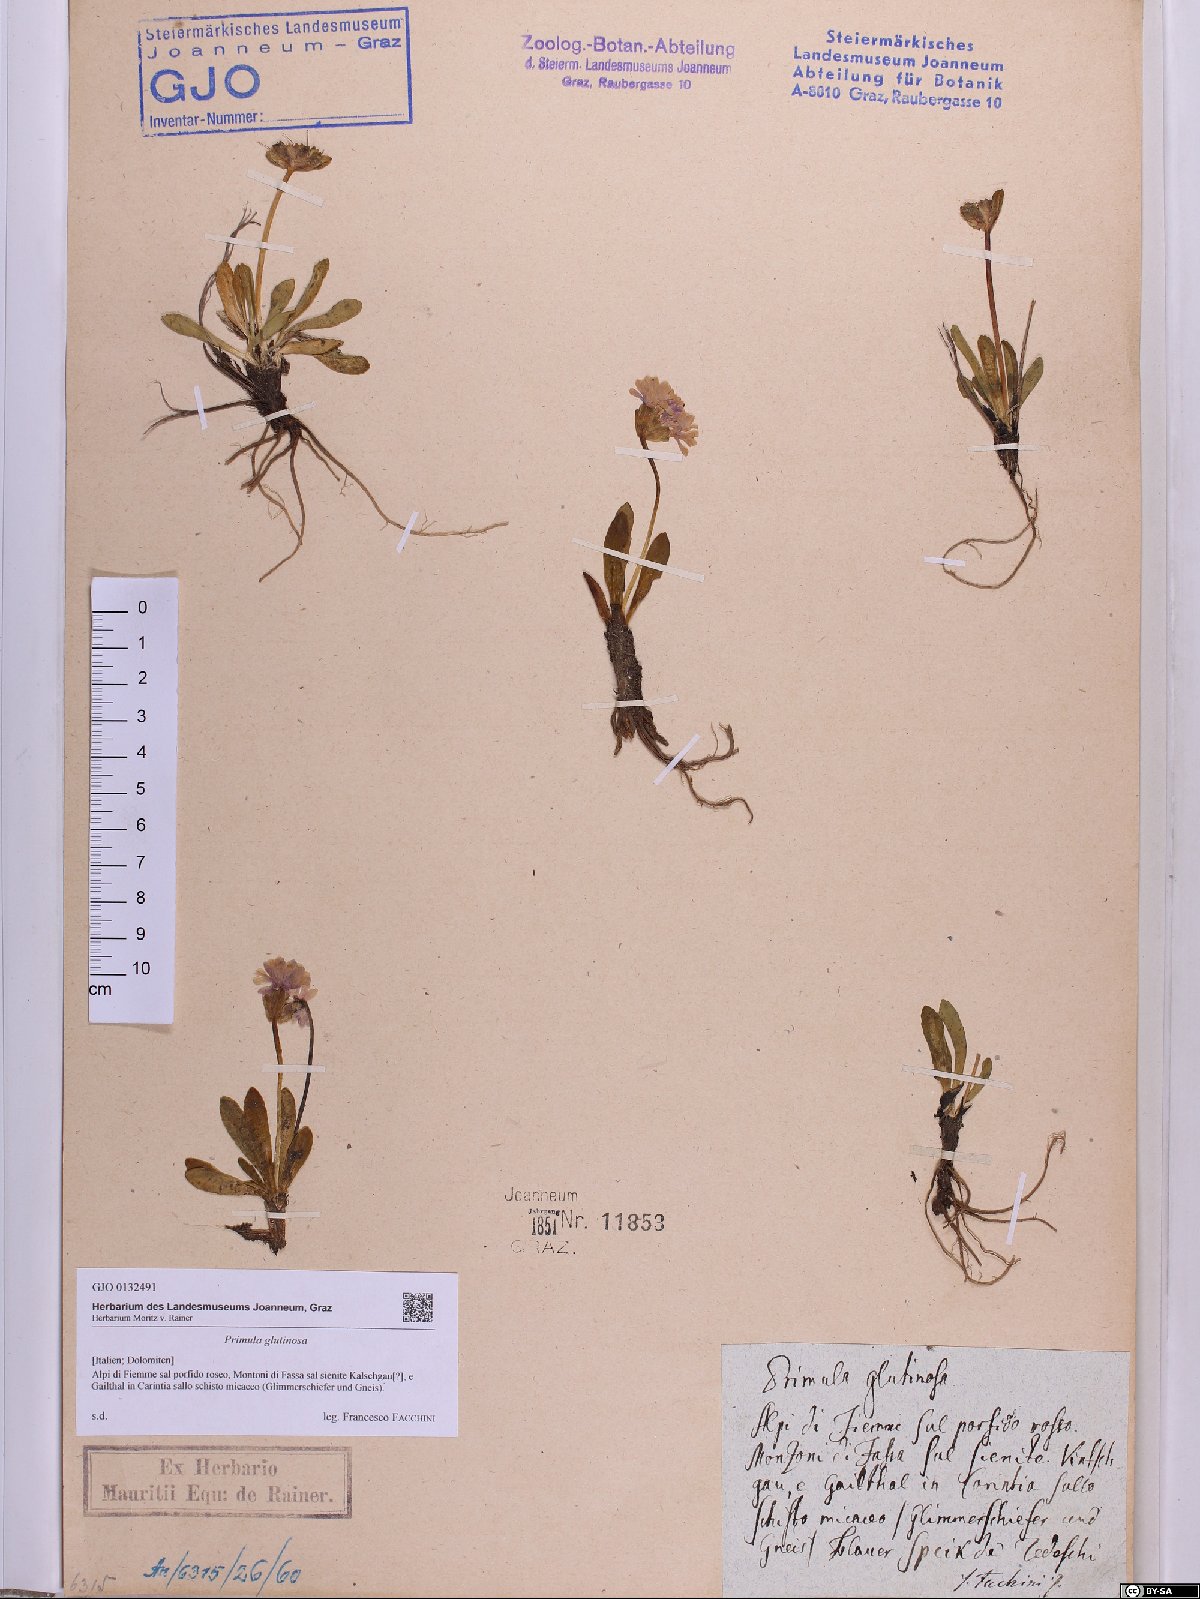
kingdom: Plantae
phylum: Tracheophyta
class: Magnoliopsida
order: Ericales
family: Primulaceae
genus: Primula
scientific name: Primula glutinosa
